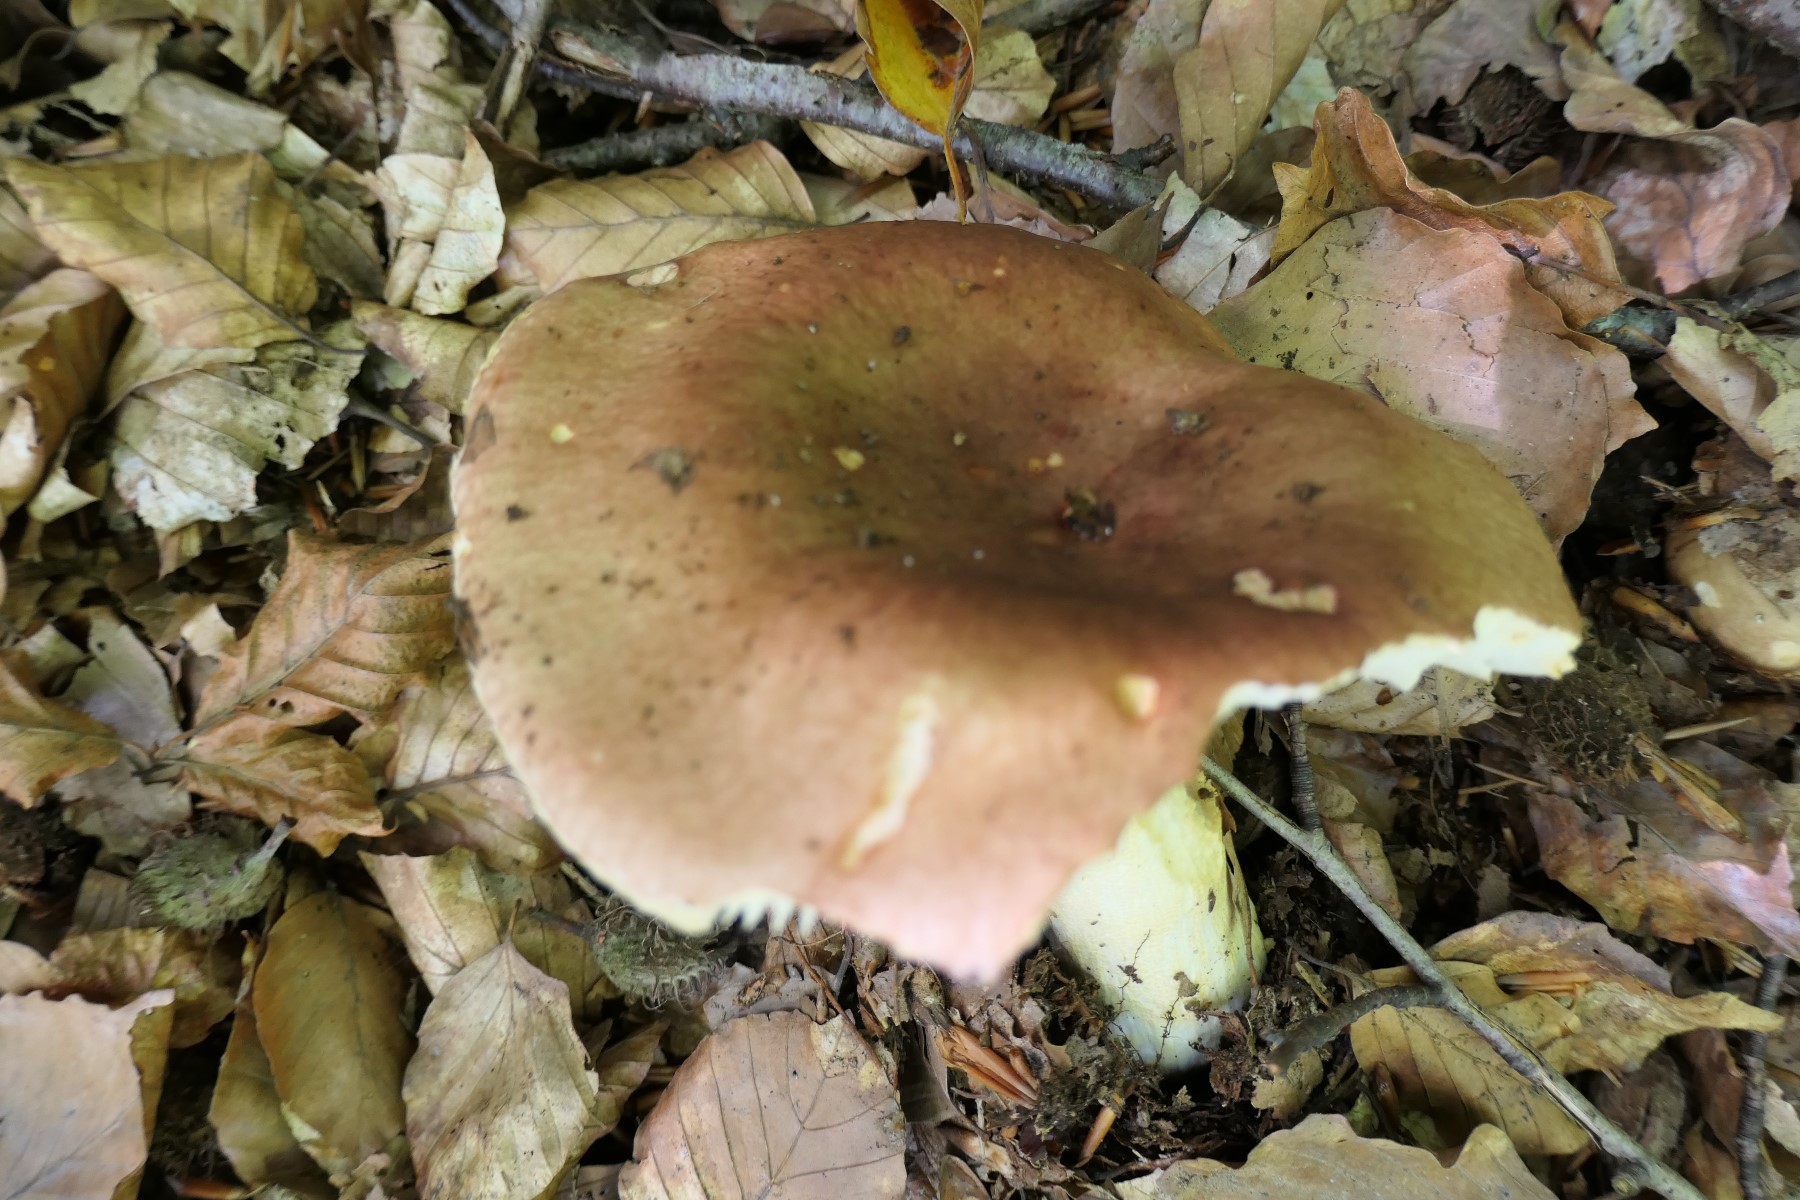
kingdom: Fungi
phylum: Basidiomycota
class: Agaricomycetes
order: Russulales
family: Russulaceae
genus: Russula
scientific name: Russula melliolens
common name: honning-skørhat
